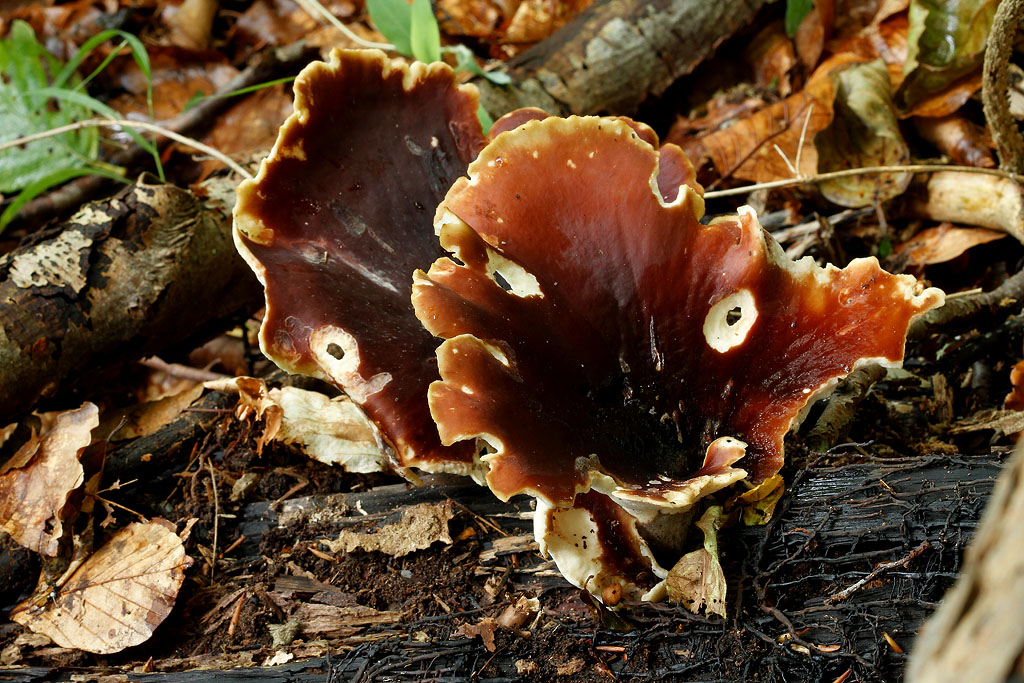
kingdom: Fungi
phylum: Basidiomycota
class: Agaricomycetes
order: Polyporales
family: Polyporaceae
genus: Picipes
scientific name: Picipes badius
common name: kastaniebrun stilkporesvamp
